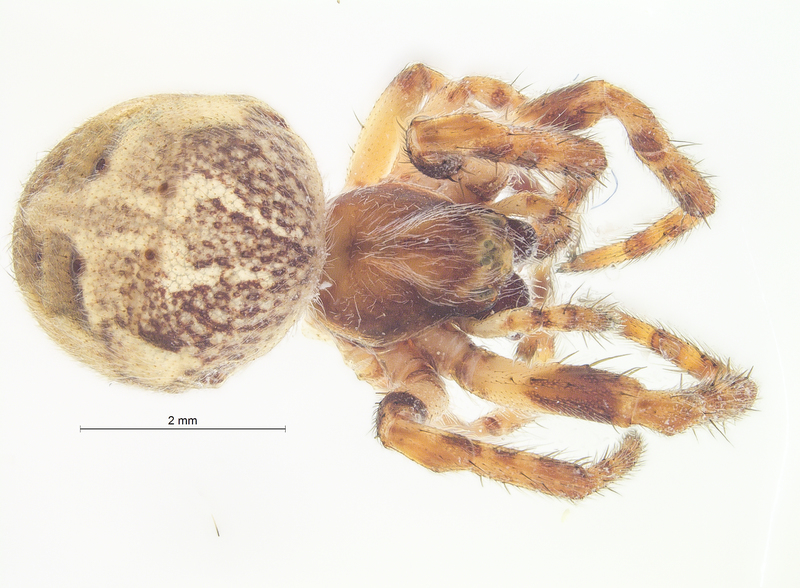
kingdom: Animalia
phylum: Arthropoda
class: Arachnida
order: Araneae
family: Araneidae
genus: Larinioides
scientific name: Larinioides cornutus
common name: Furrow orbweaver
